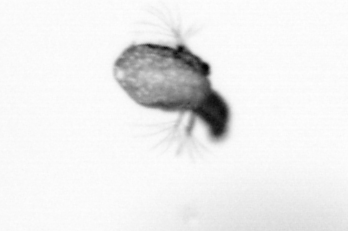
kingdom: Animalia
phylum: Arthropoda
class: Copepoda
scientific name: Copepoda
